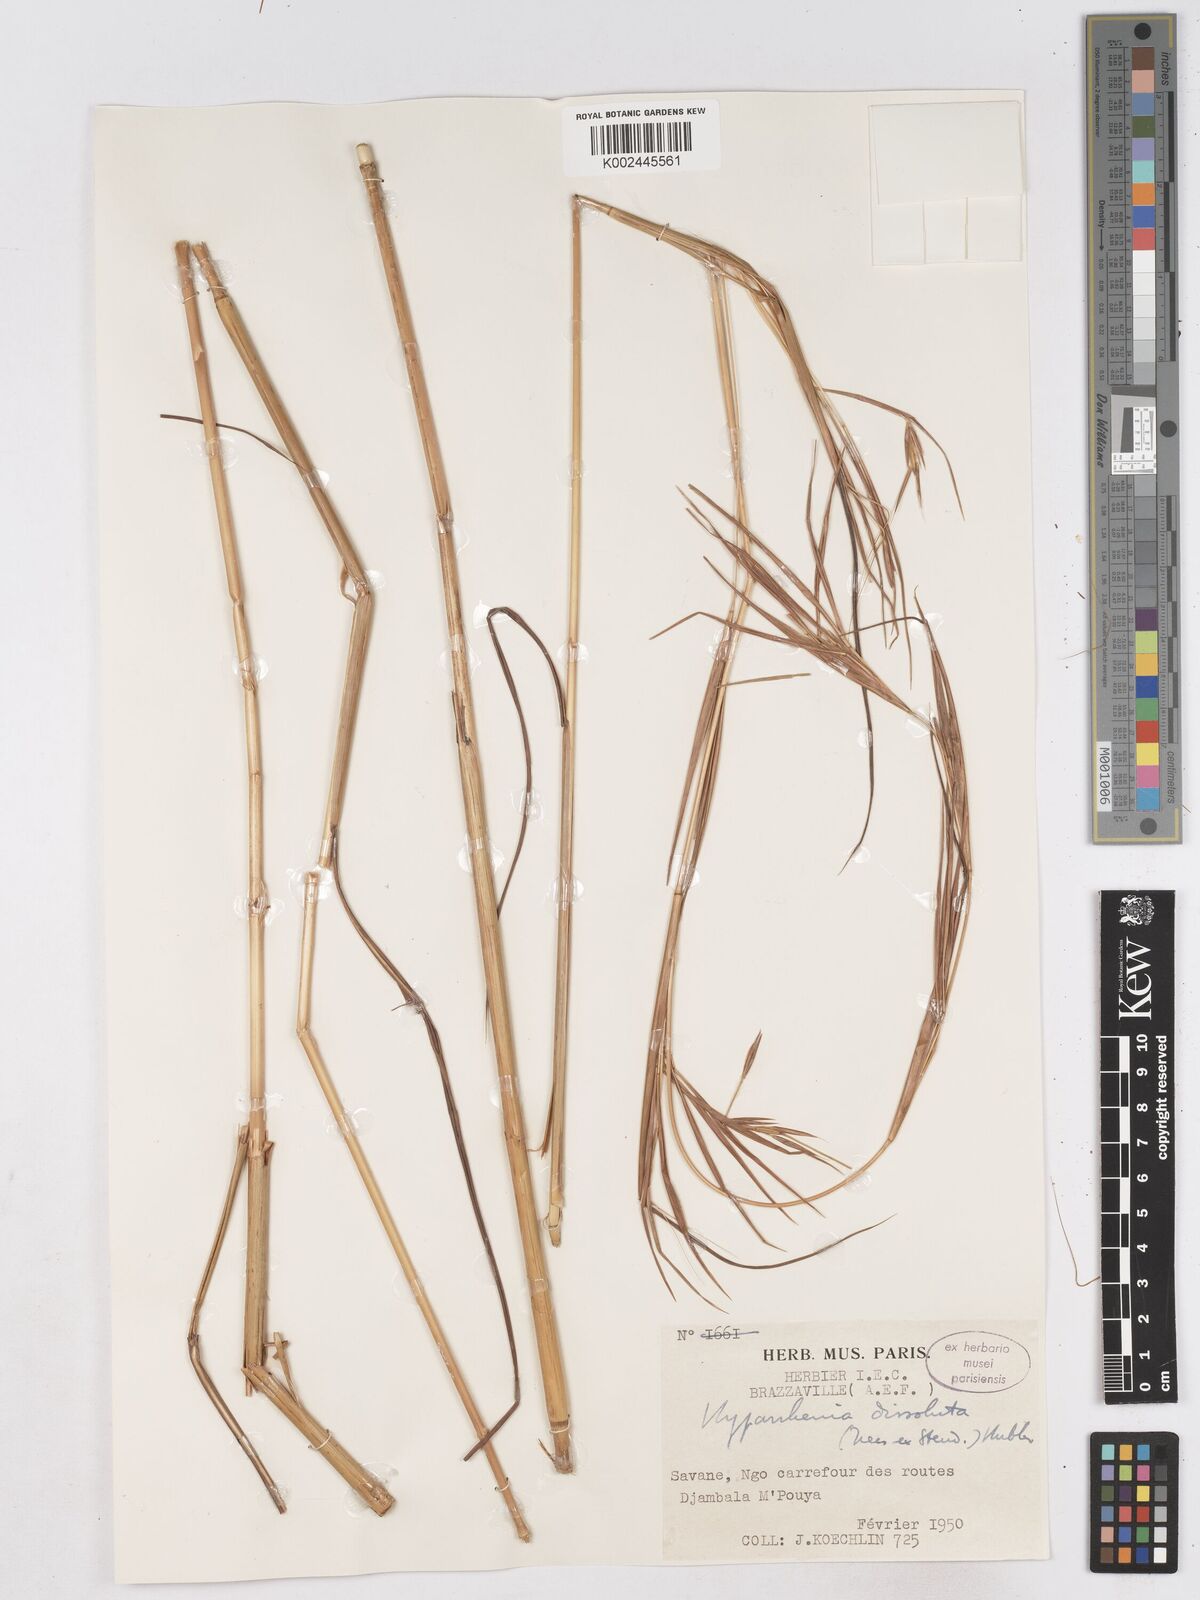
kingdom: Plantae
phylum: Tracheophyta
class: Liliopsida
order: Poales
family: Poaceae
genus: Hyperthelia
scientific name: Hyperthelia dissoluta
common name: Yellow thatching grass
